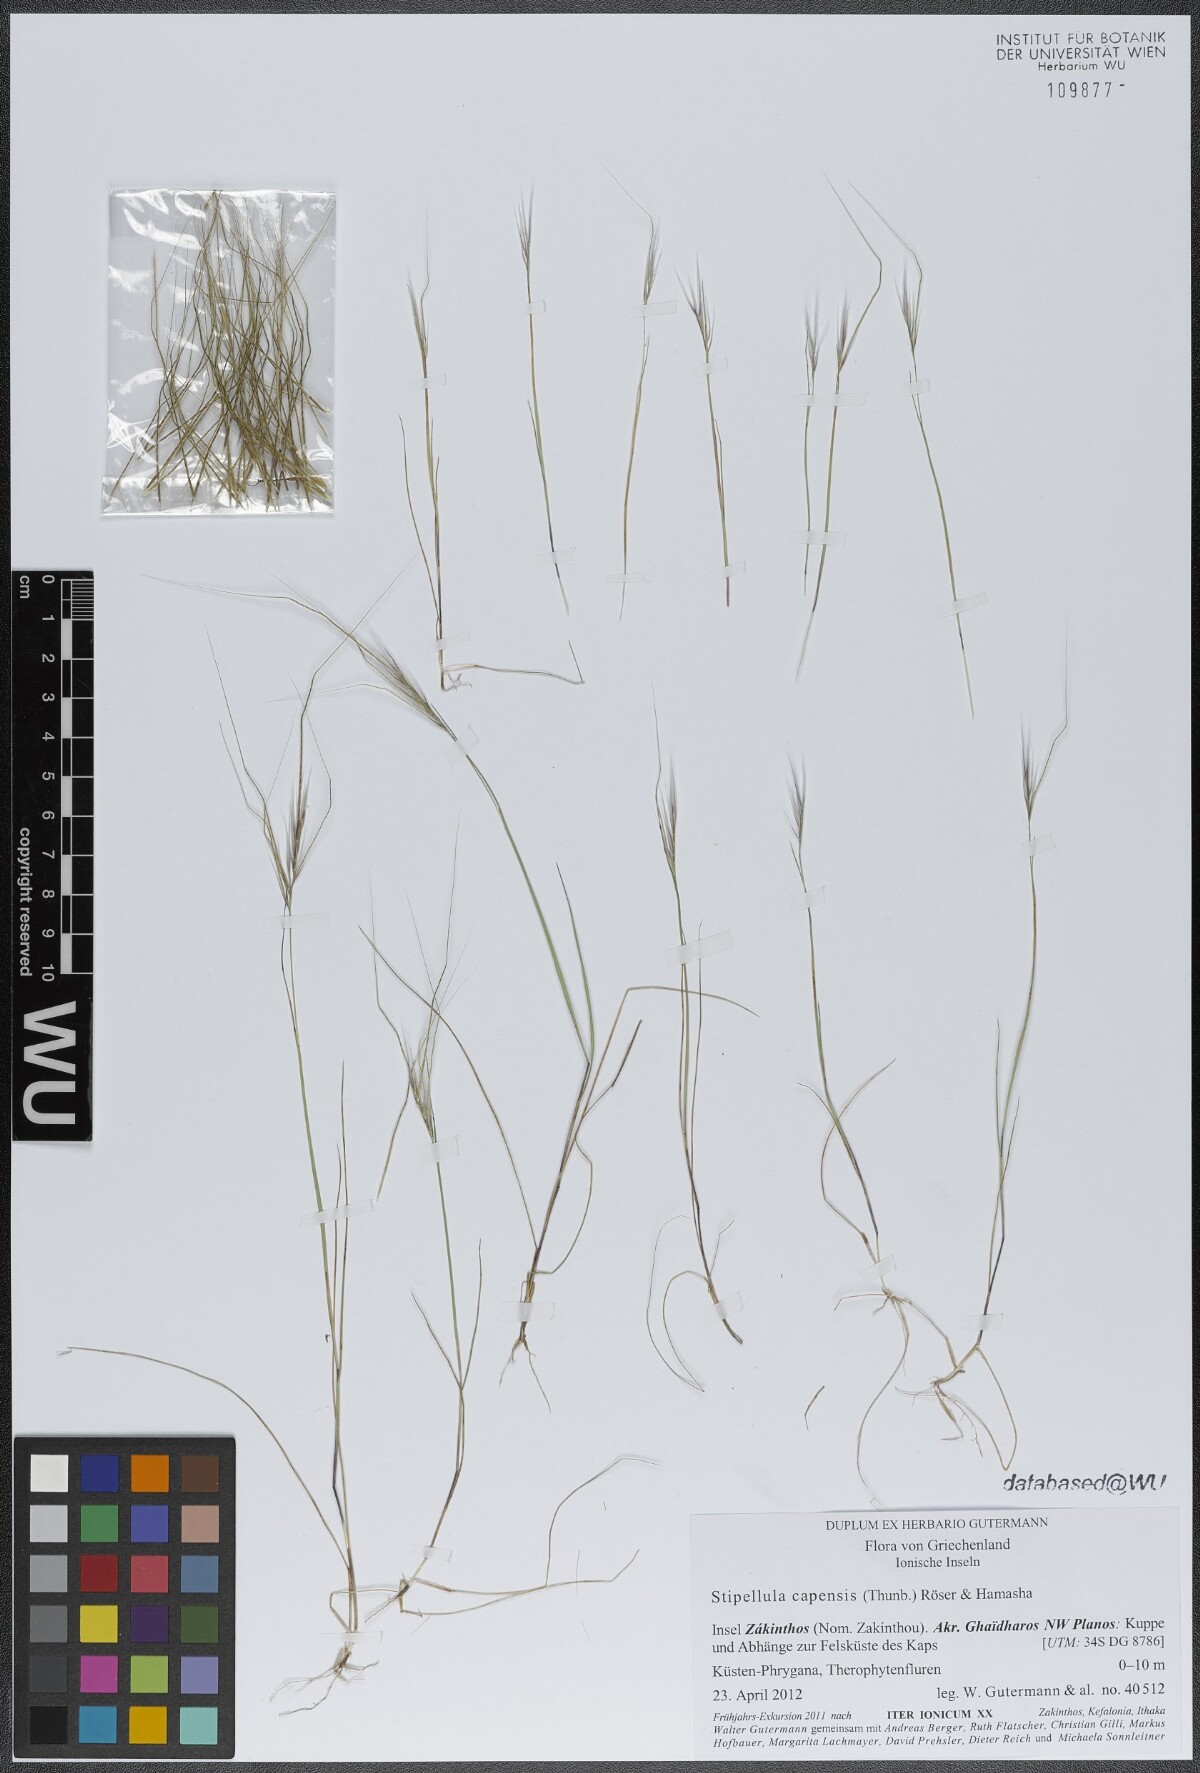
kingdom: Plantae
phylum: Tracheophyta
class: Liliopsida
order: Poales
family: Poaceae
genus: Stipellula
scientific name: Stipellula capensis
